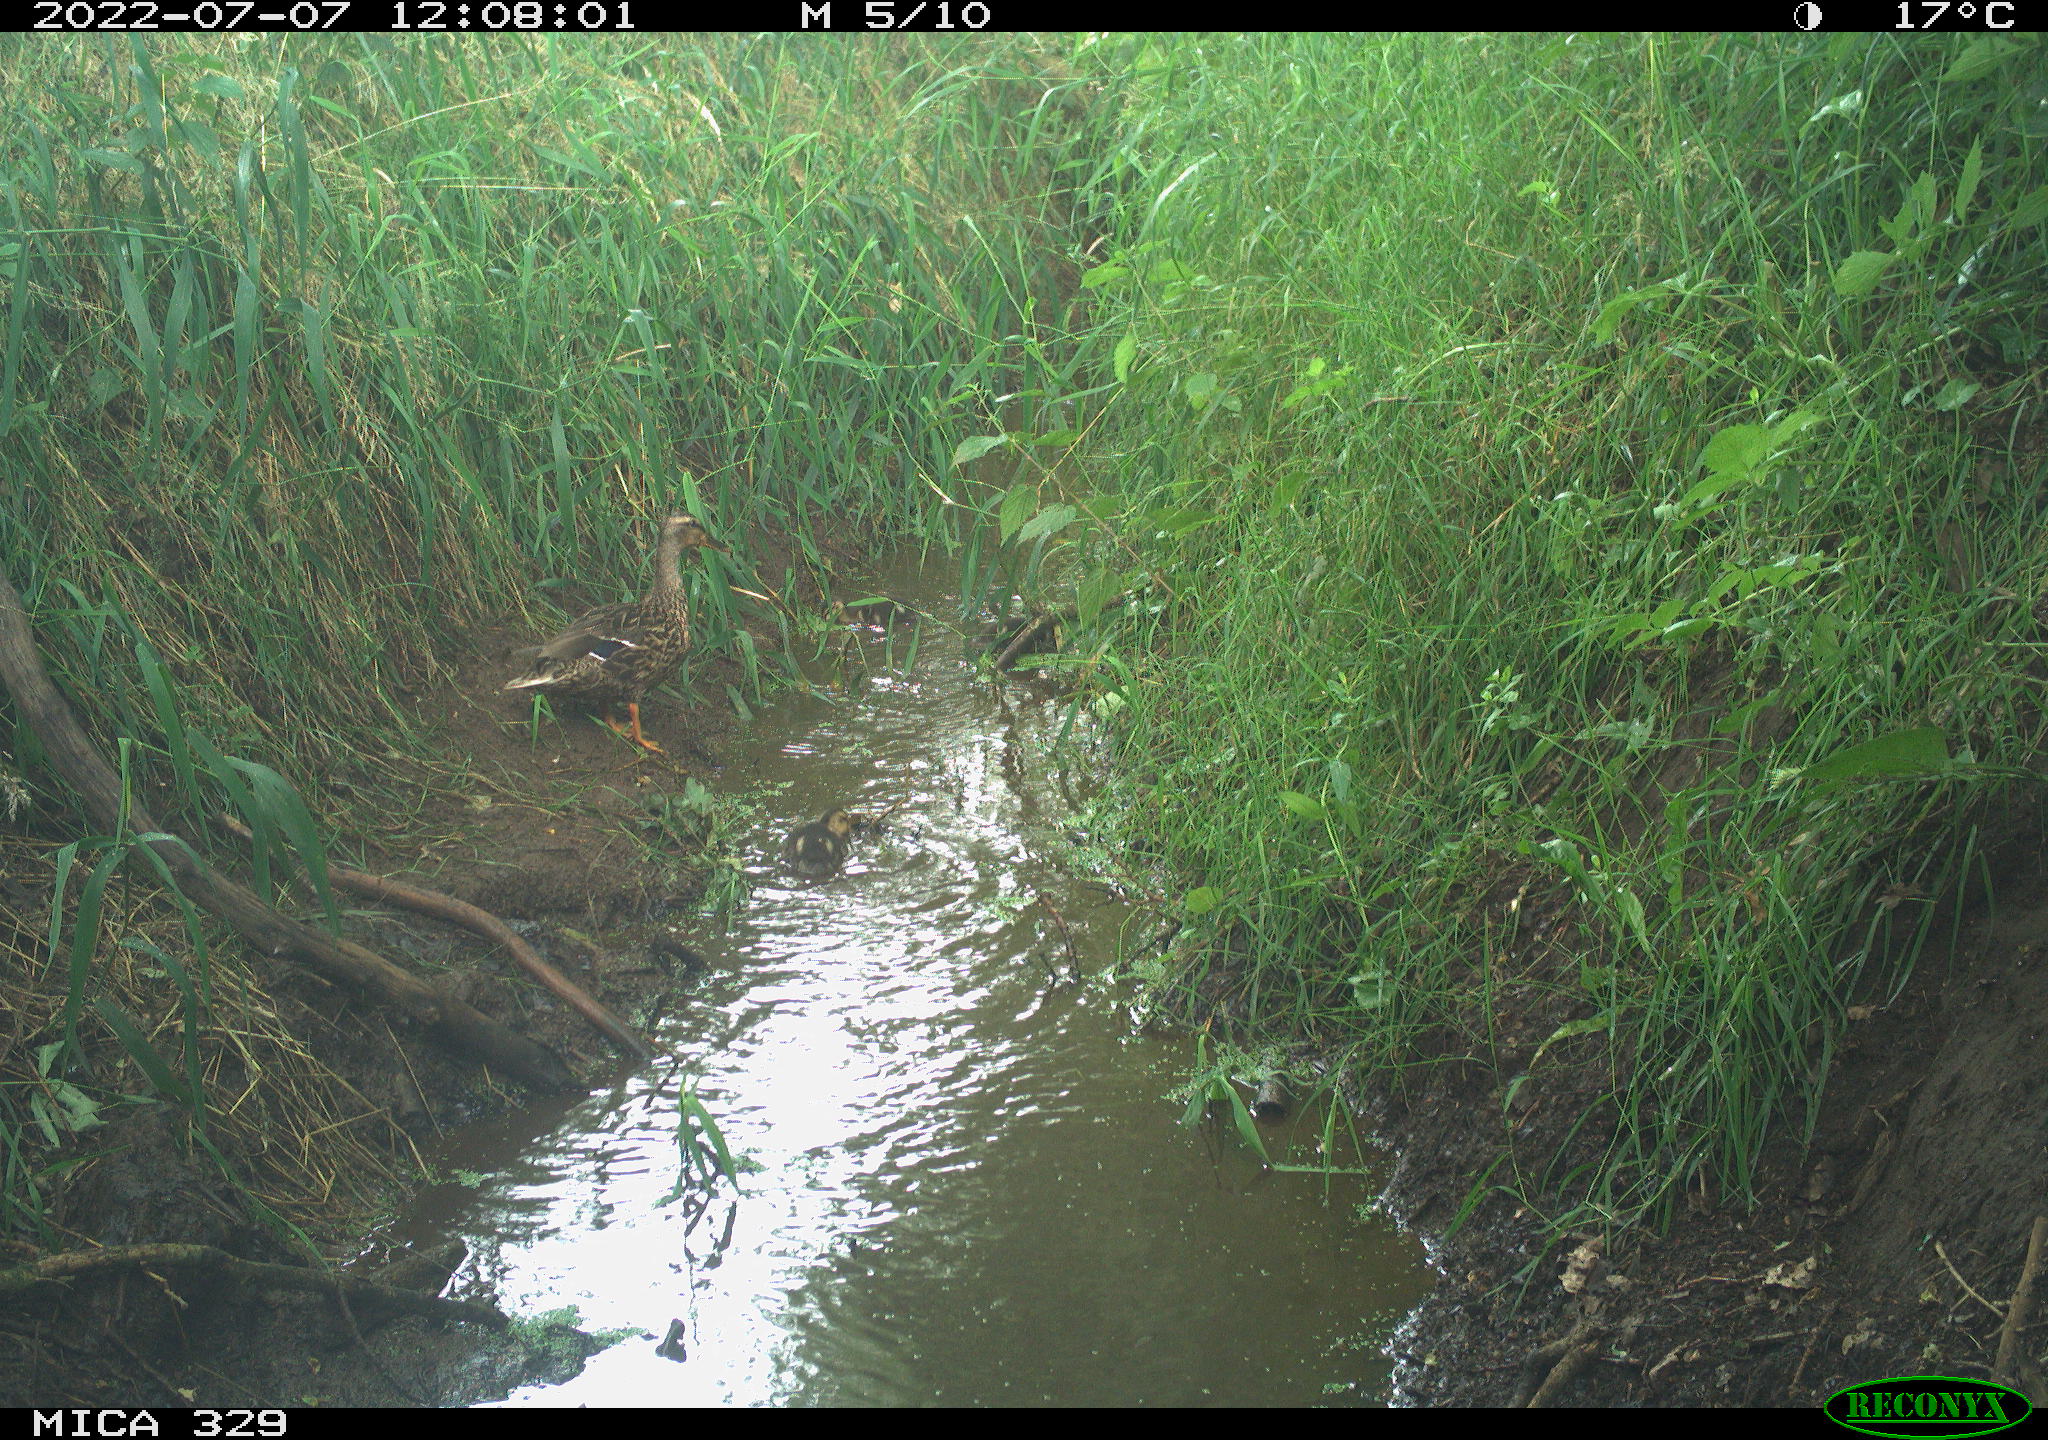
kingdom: Animalia
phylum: Chordata
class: Aves
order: Anseriformes
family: Anatidae
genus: Anas
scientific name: Anas platyrhynchos
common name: Mallard
